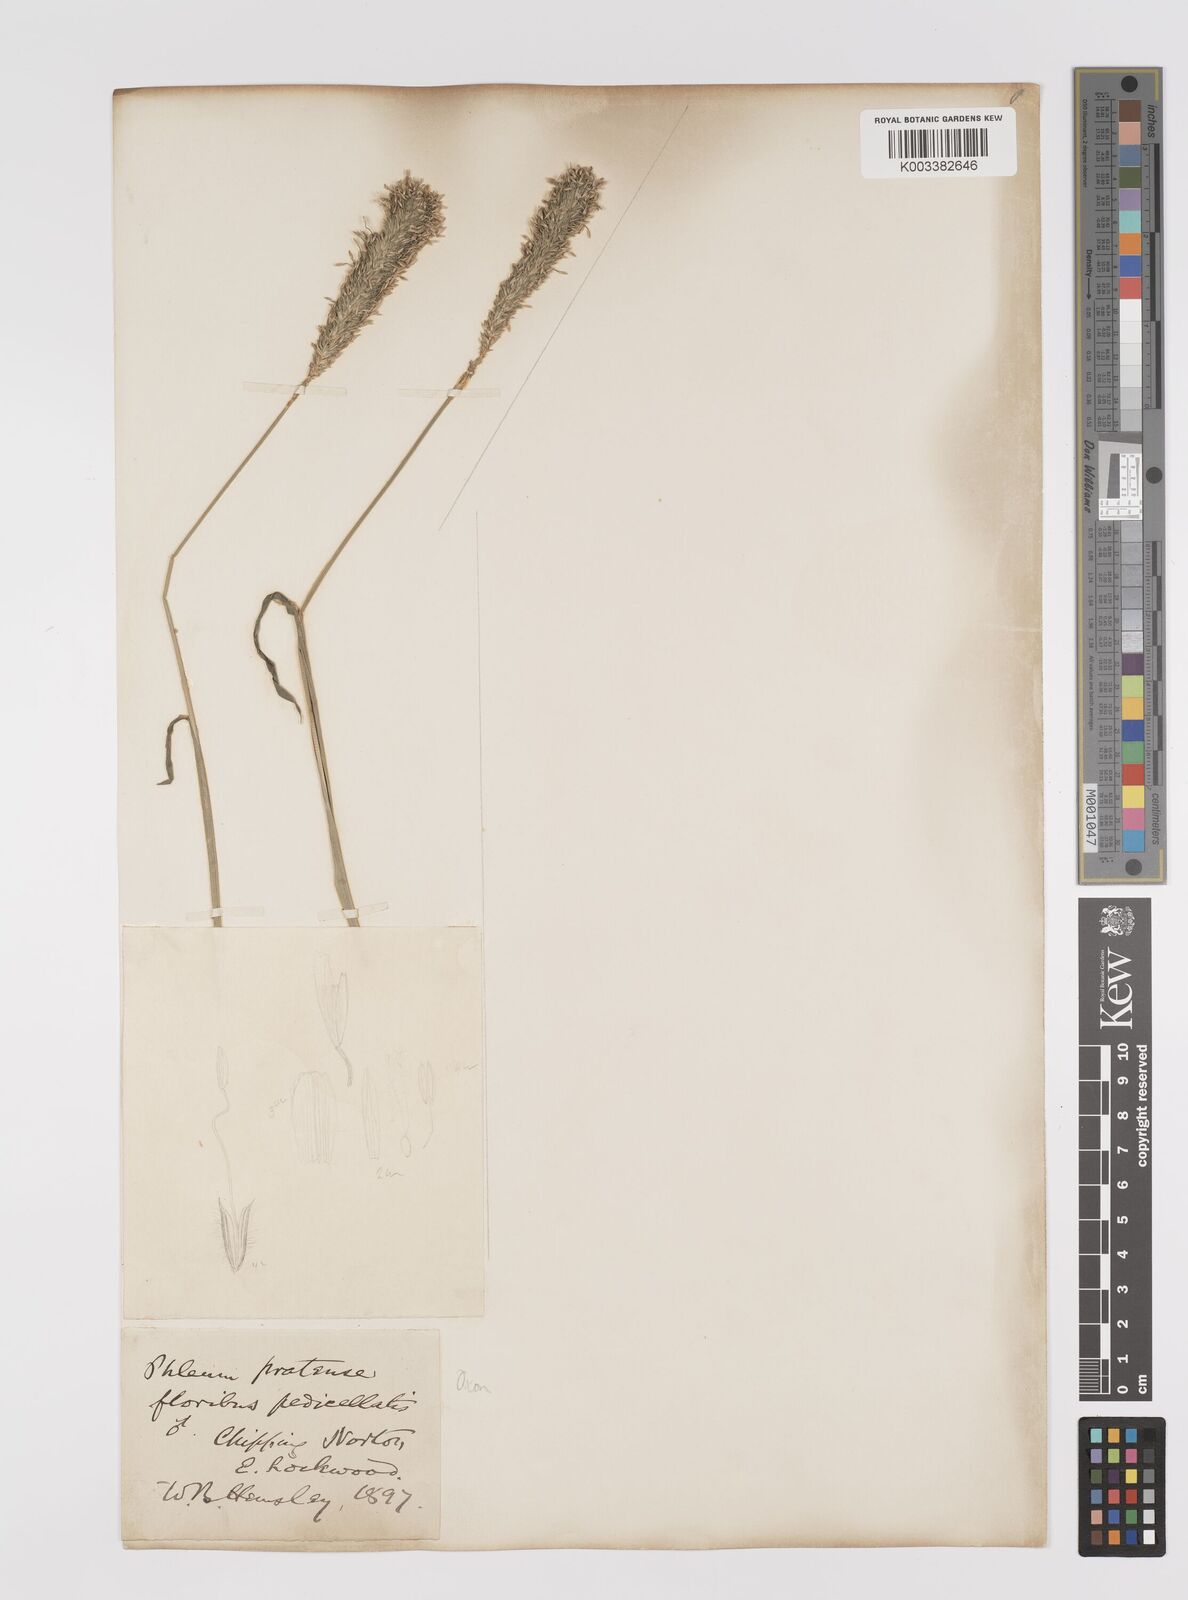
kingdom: Plantae
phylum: Tracheophyta
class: Liliopsida
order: Poales
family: Poaceae
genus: Phleum
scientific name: Phleum pratense
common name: Timothy grass
